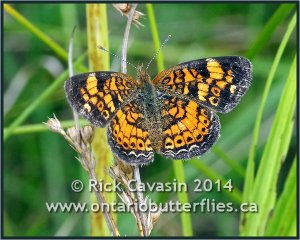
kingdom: Animalia
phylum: Arthropoda
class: Insecta
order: Lepidoptera
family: Nymphalidae
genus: Phyciodes
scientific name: Phyciodes tharos
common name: Pearl Crescent
